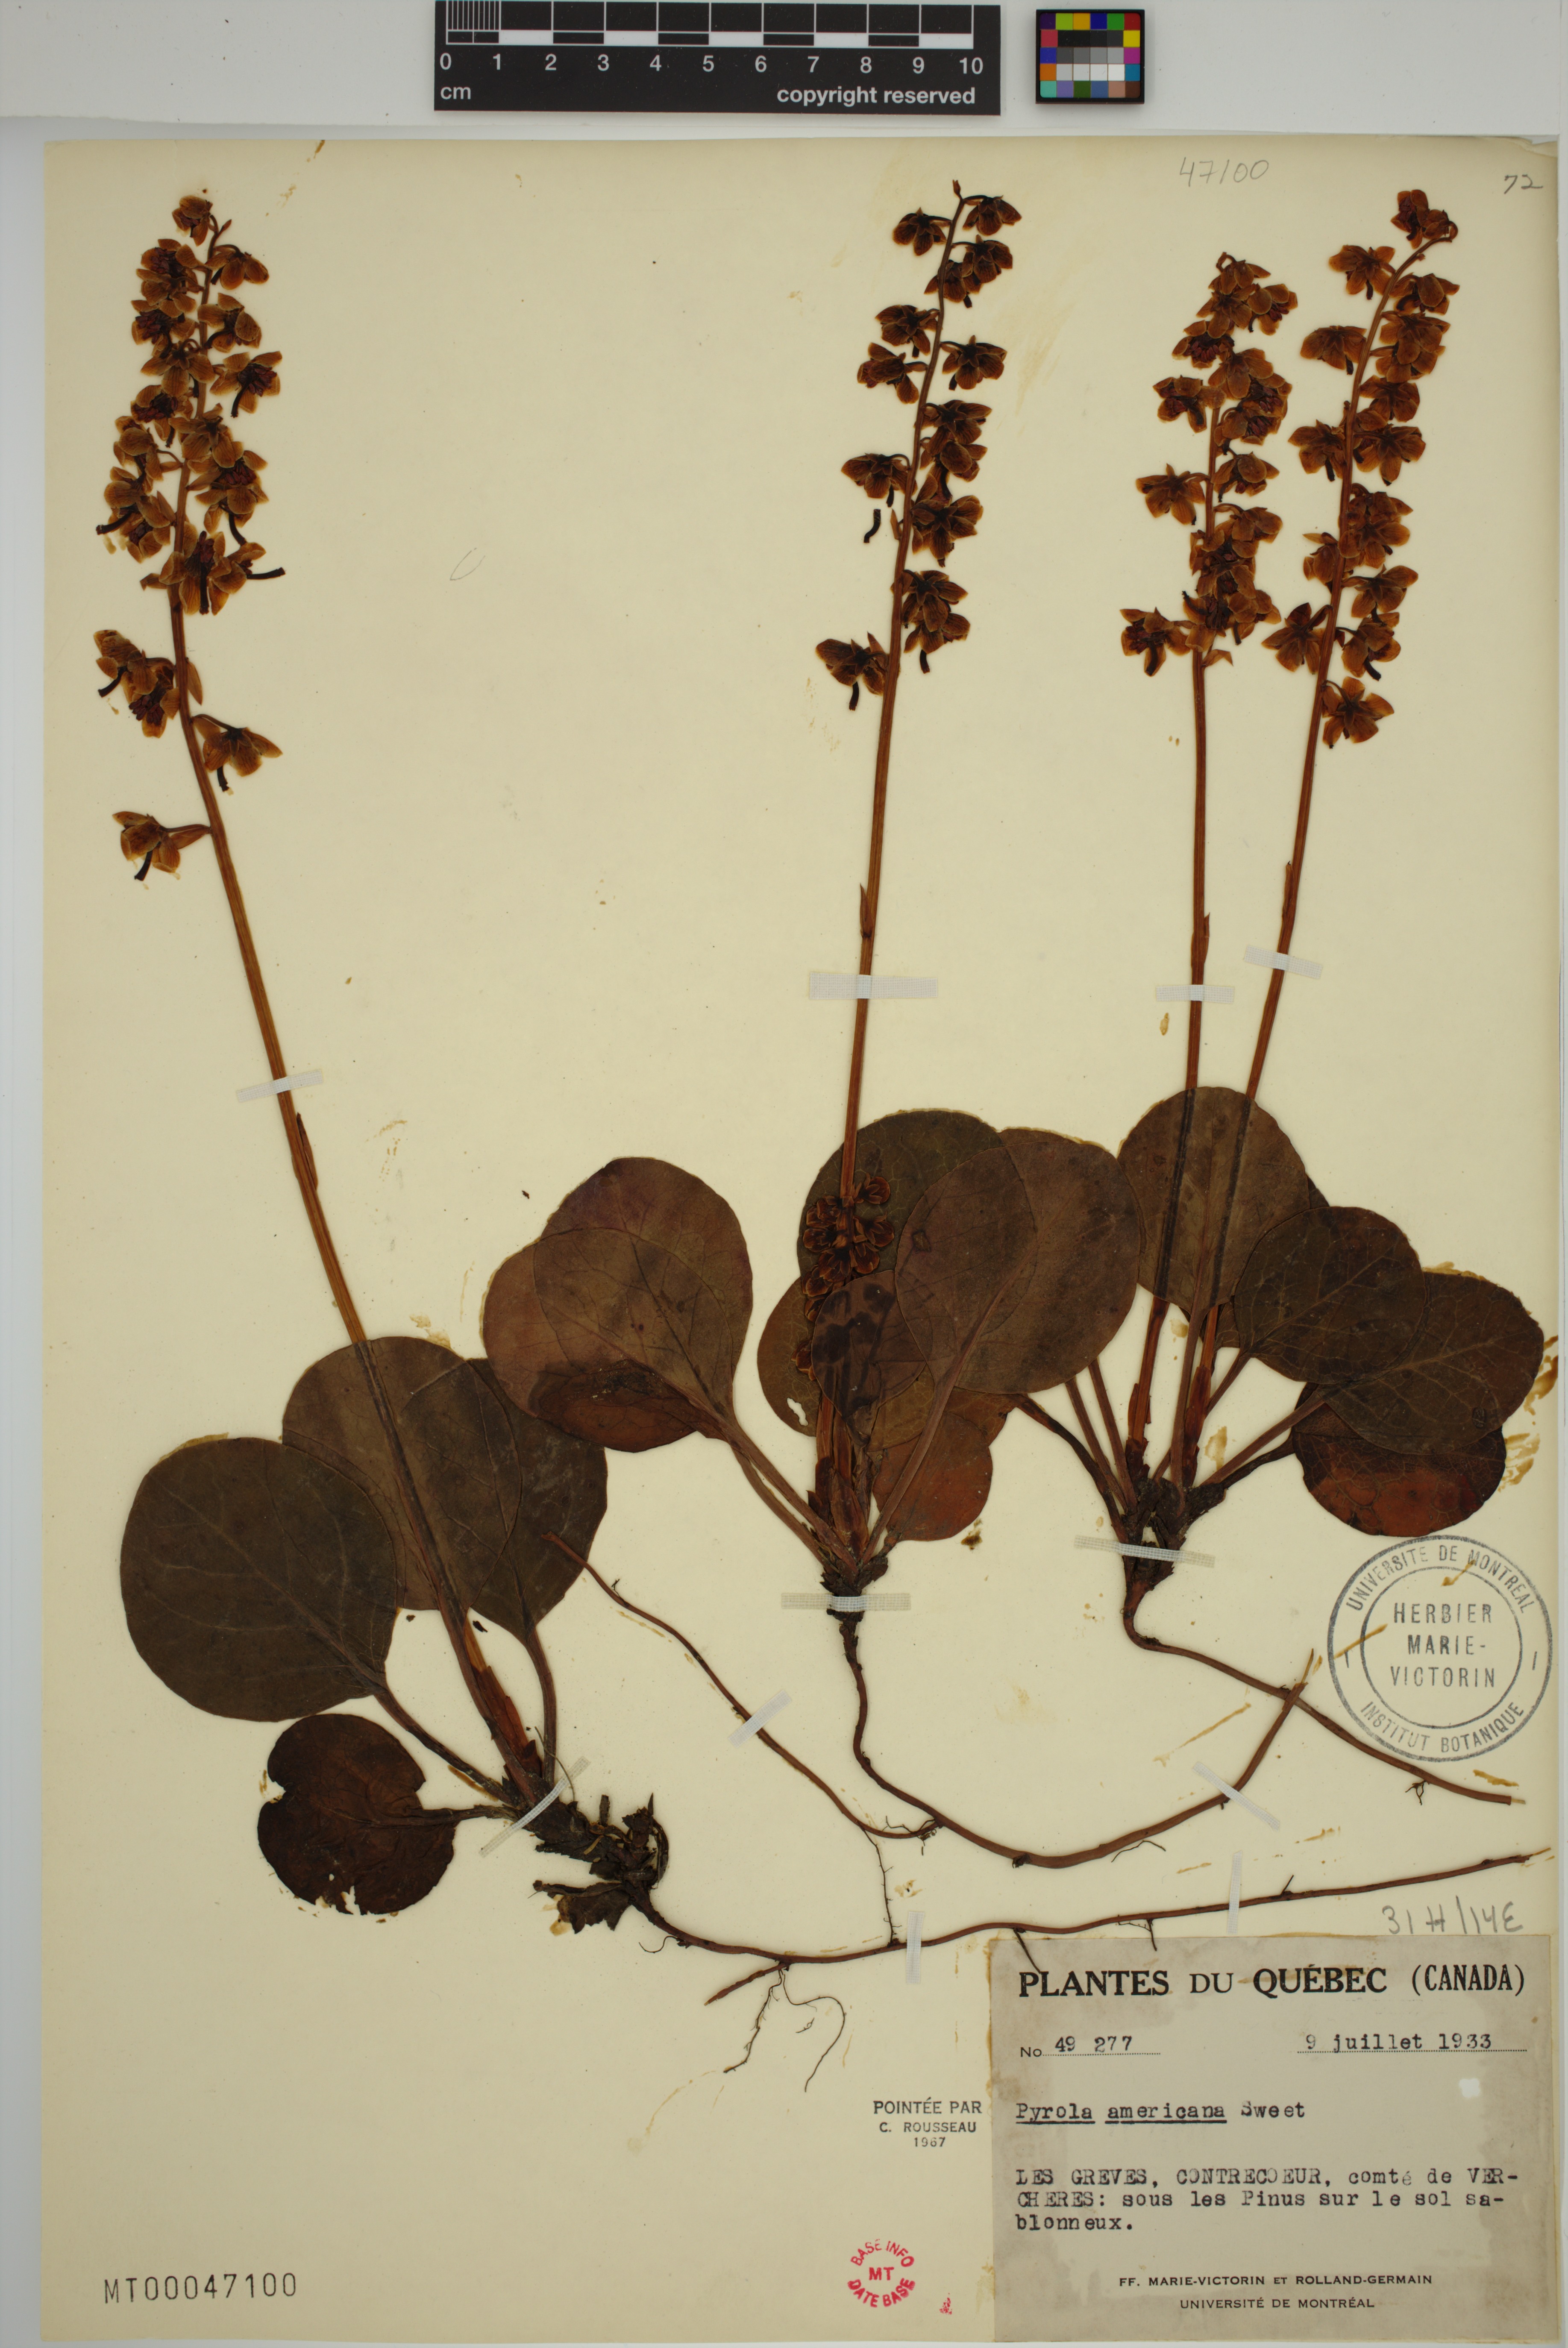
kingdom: Plantae
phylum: Tracheophyta
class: Magnoliopsida
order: Ericales
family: Ericaceae
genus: Pyrola
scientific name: Pyrola americana
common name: American wintergreen
